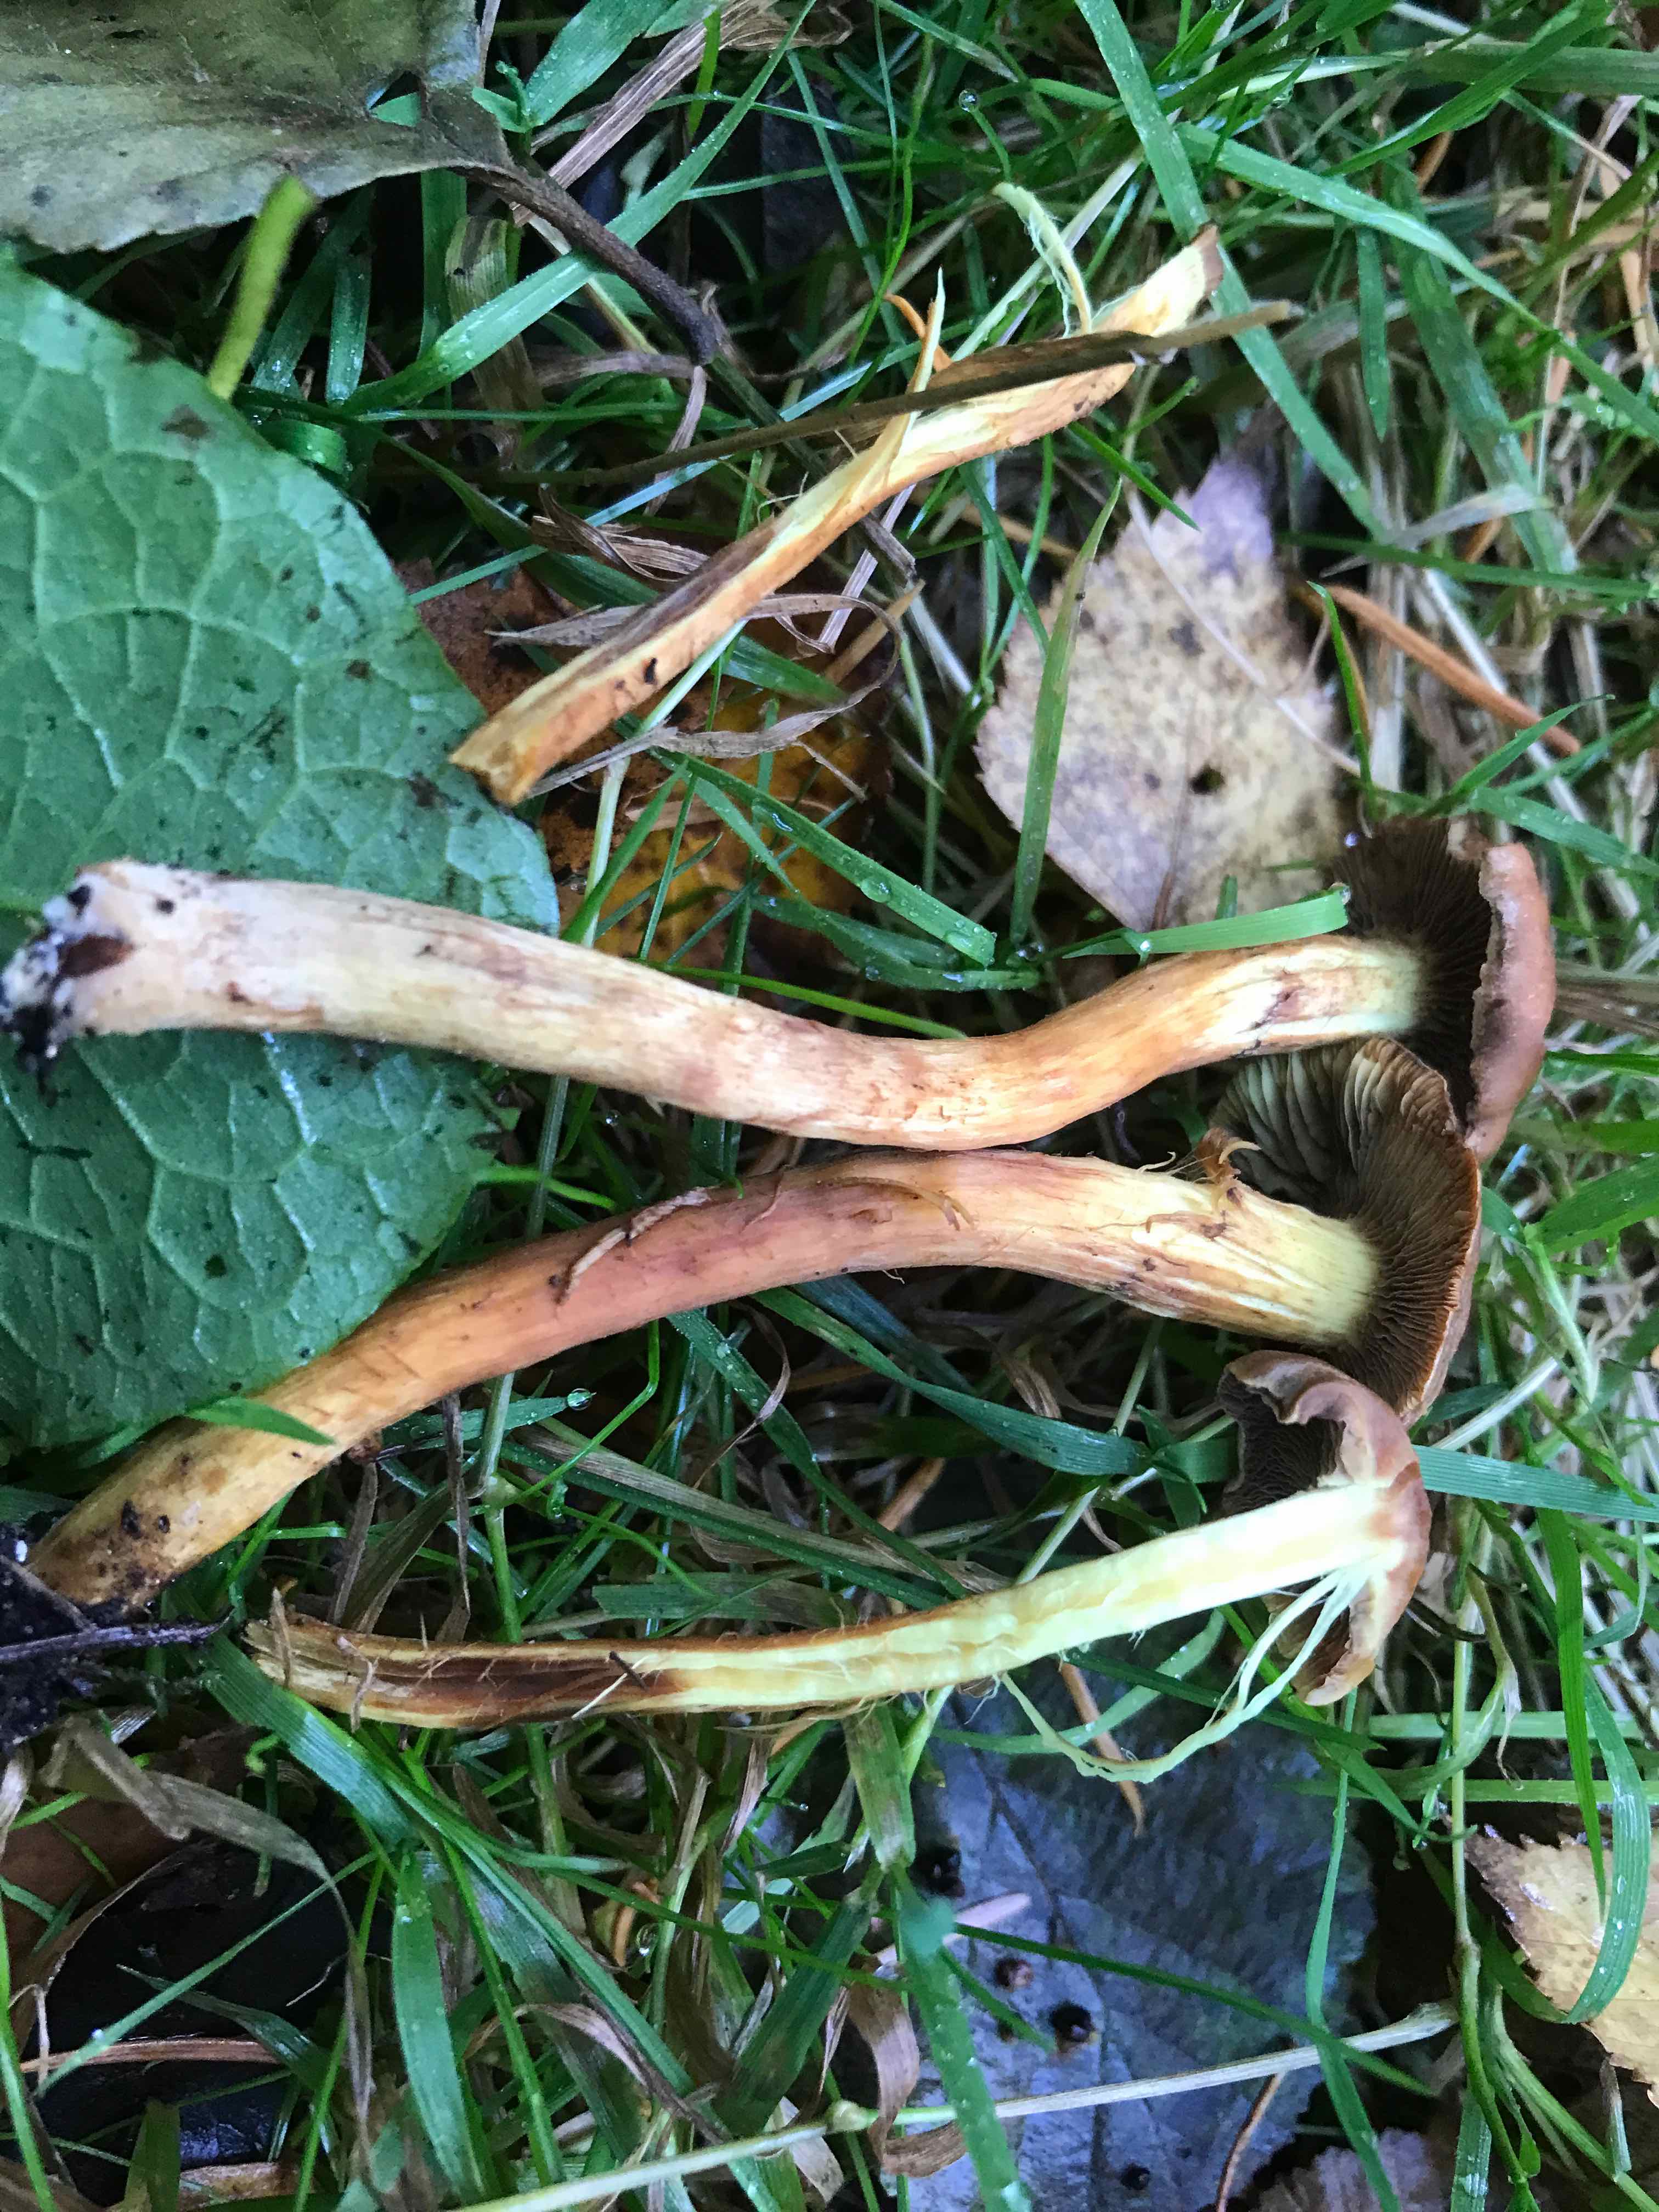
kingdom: Fungi
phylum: Basidiomycota
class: Agaricomycetes
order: Agaricales
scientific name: Agaricales
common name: champignonordenen
